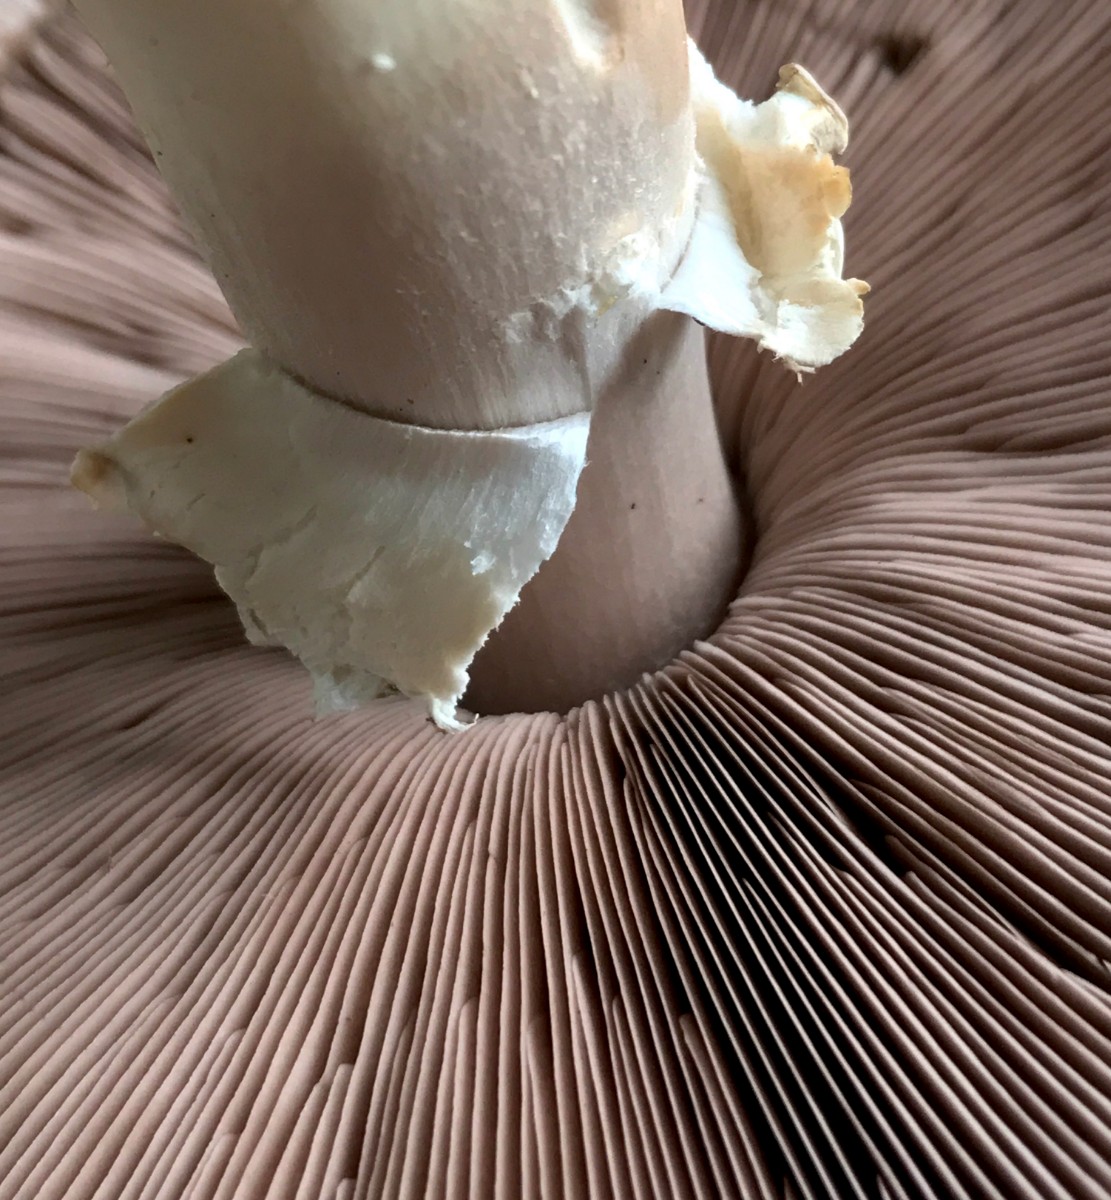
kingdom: Fungi
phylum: Basidiomycota
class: Agaricomycetes
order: Agaricales
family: Agaricaceae
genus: Agaricus
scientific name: Agaricus campestris
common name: mark-champignon
